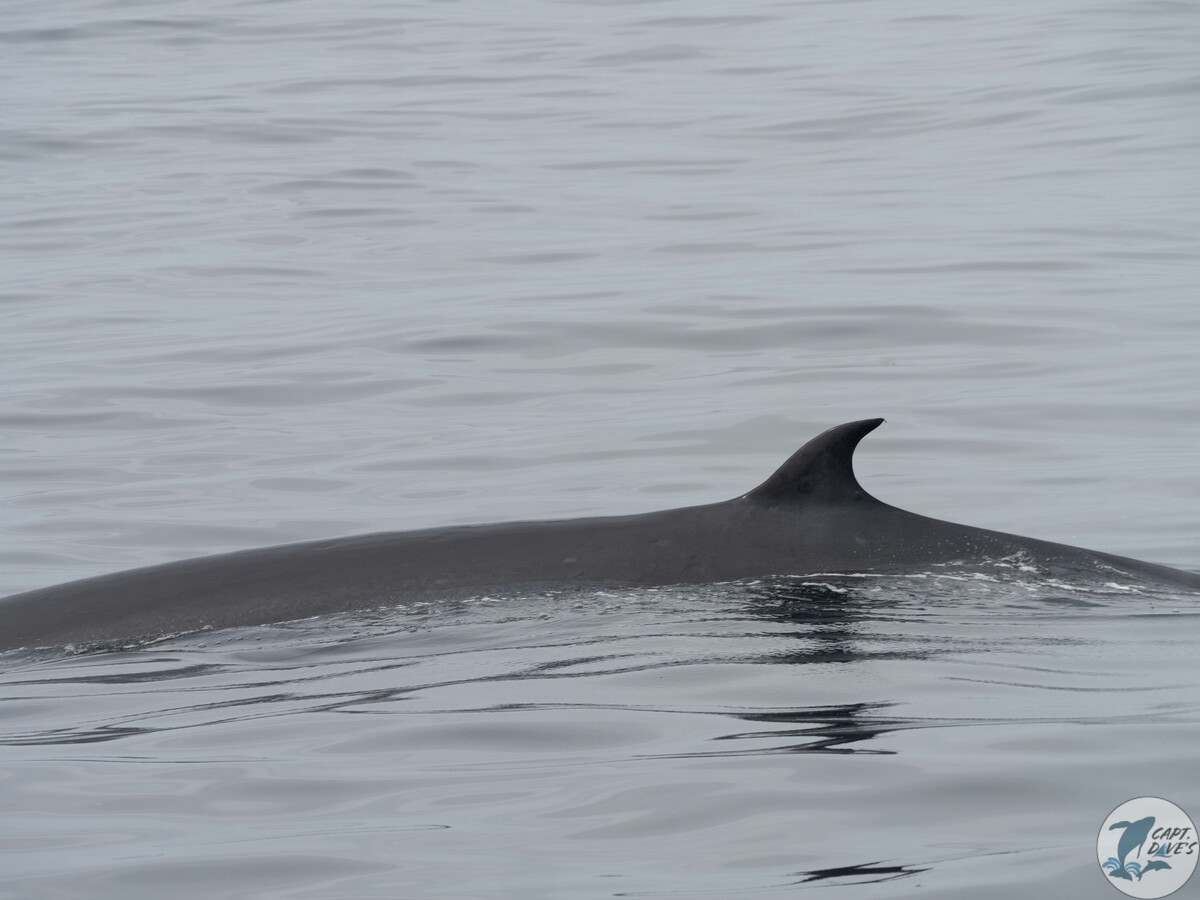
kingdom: Animalia
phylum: Chordata
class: Mammalia
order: Cetacea
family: Balaenopteridae
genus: Balaenoptera
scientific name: Balaenoptera edeni
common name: Bryde's whale
